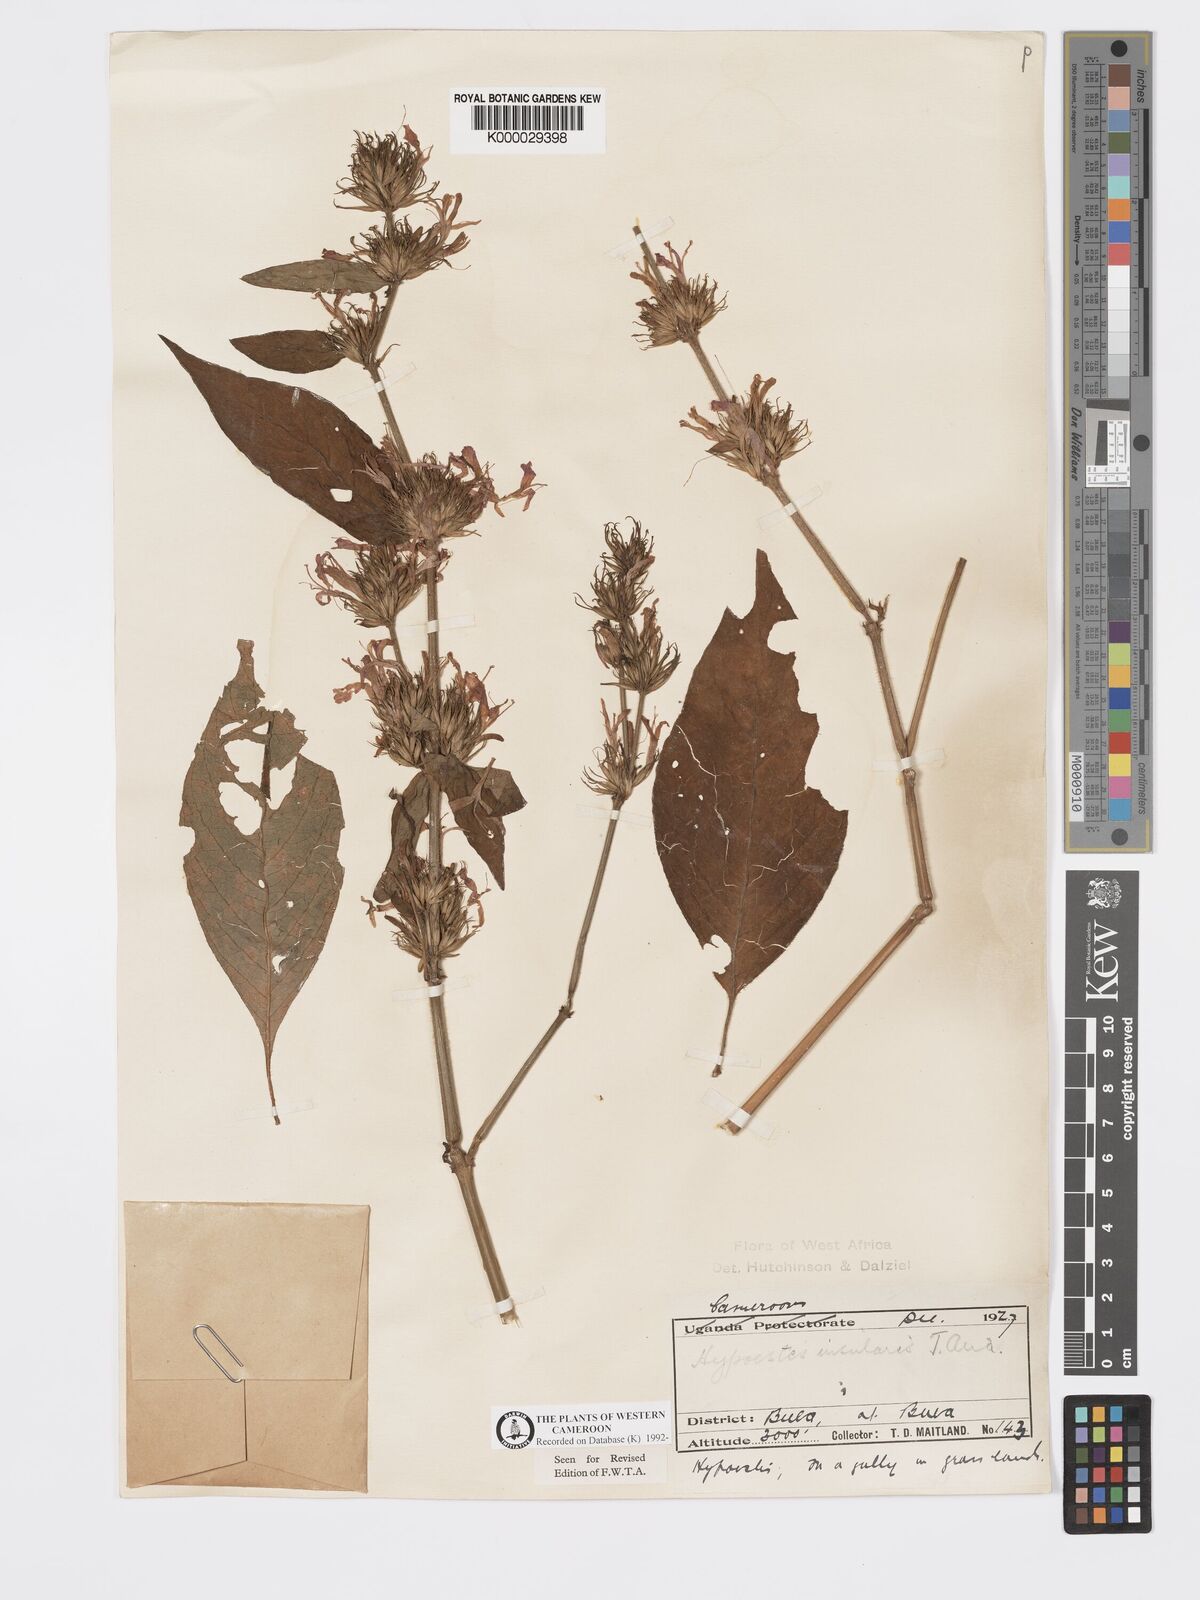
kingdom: Plantae
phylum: Tracheophyta
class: Magnoliopsida
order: Lamiales
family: Acanthaceae
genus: Hypoestes
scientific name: Hypoestes aristata
